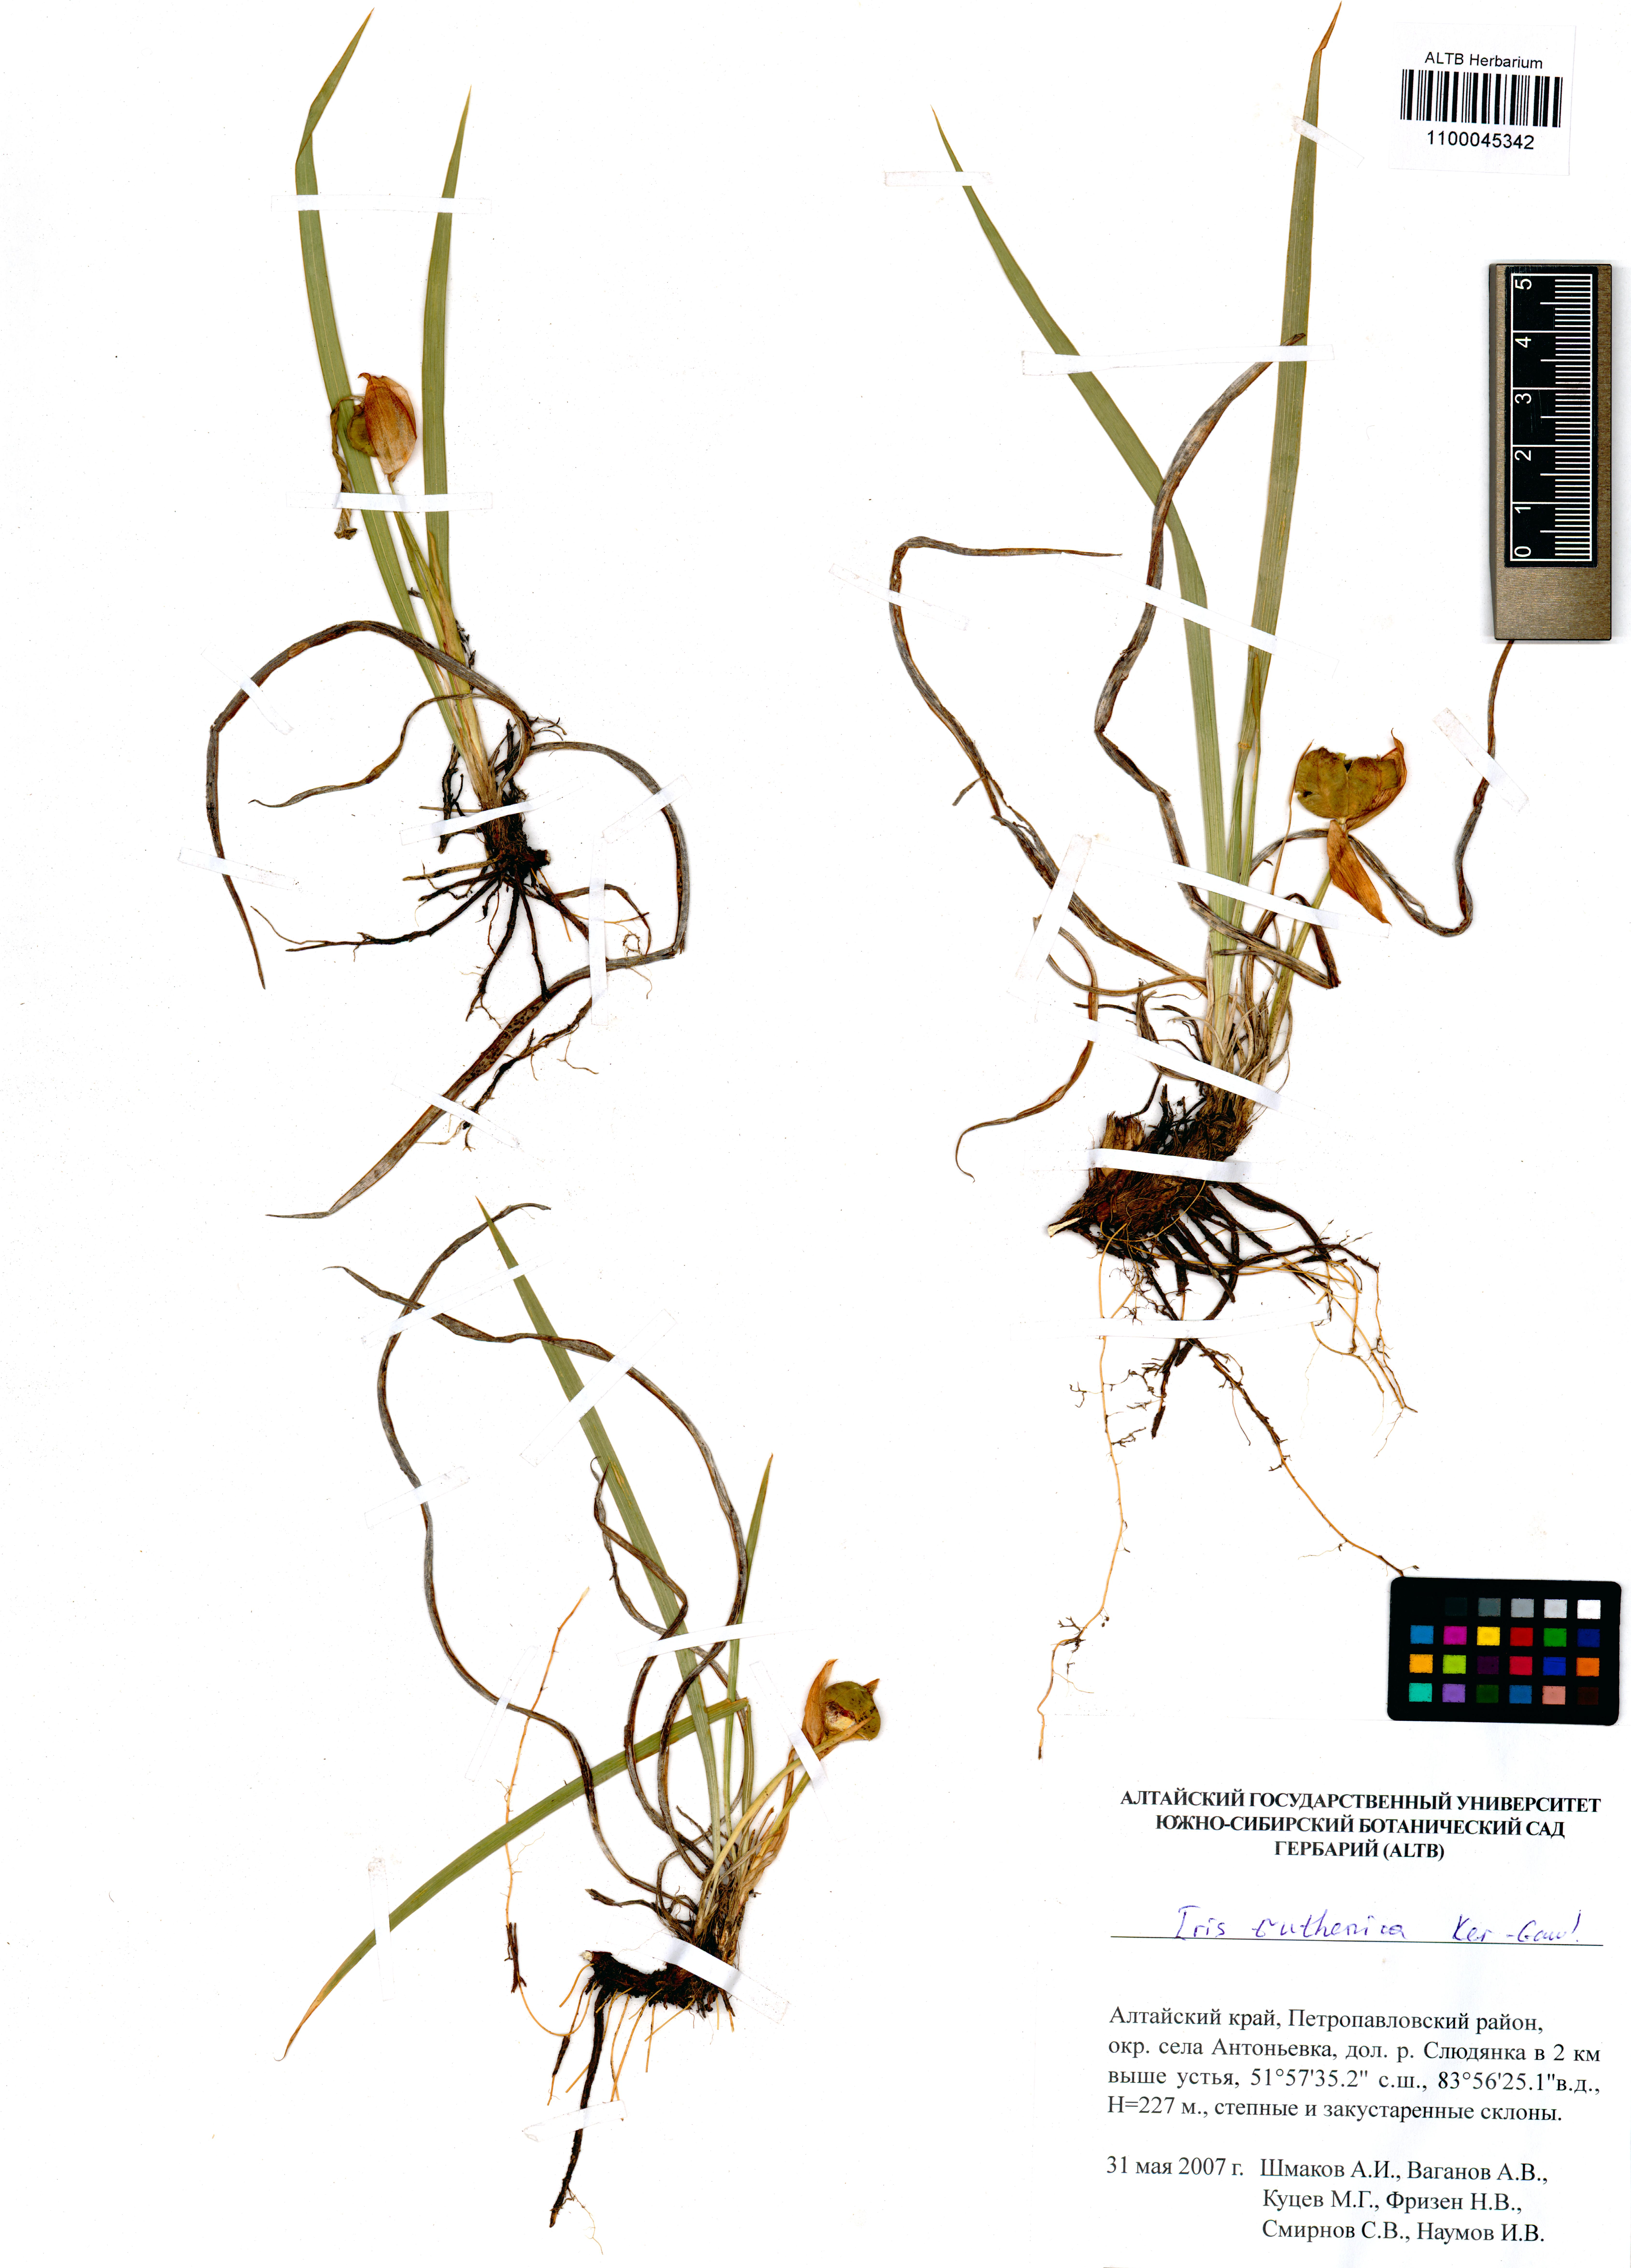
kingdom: Plantae
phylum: Tracheophyta
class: Liliopsida
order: Asparagales
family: Iridaceae
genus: Iris
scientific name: Iris ruthenica
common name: Purple-bract iris
